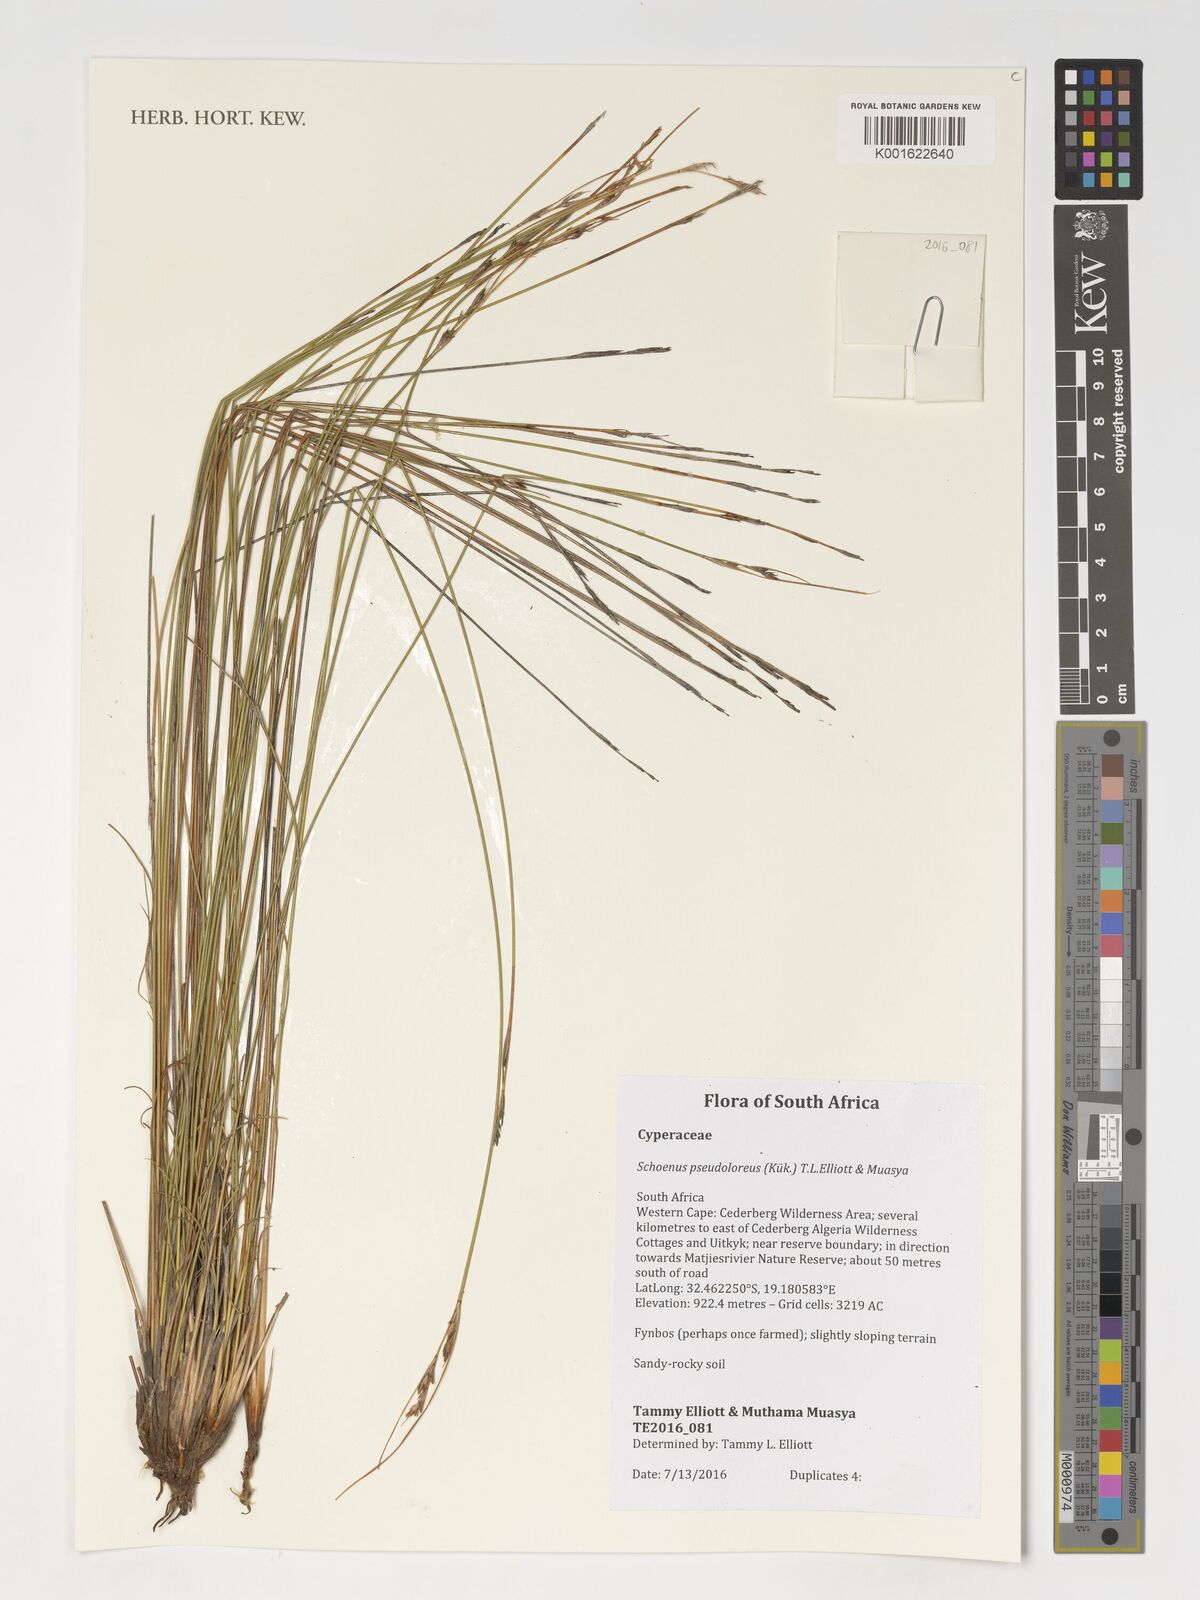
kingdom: Plantae
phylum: Tracheophyta
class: Liliopsida
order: Poales
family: Cyperaceae
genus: Schoenus
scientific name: Schoenus pseudoloreus
